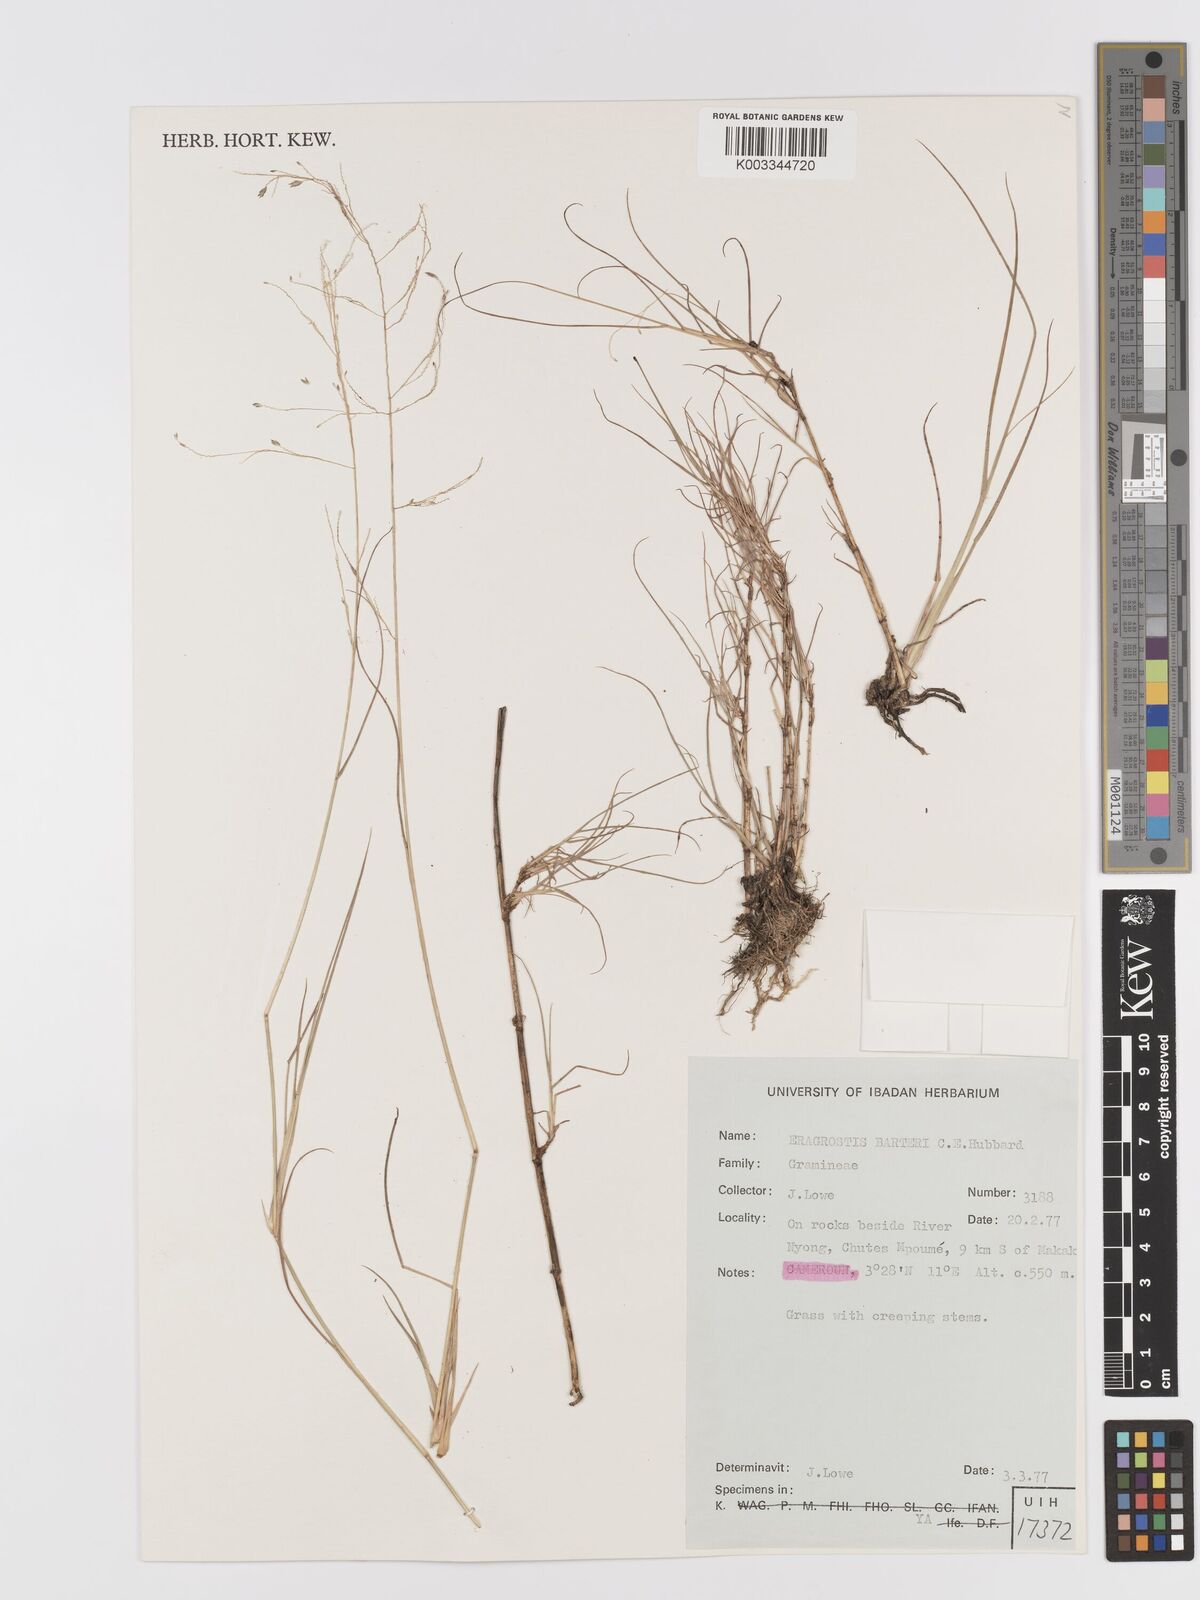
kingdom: Plantae
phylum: Tracheophyta
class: Liliopsida
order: Poales
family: Poaceae
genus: Eragrostis
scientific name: Eragrostis barteri
